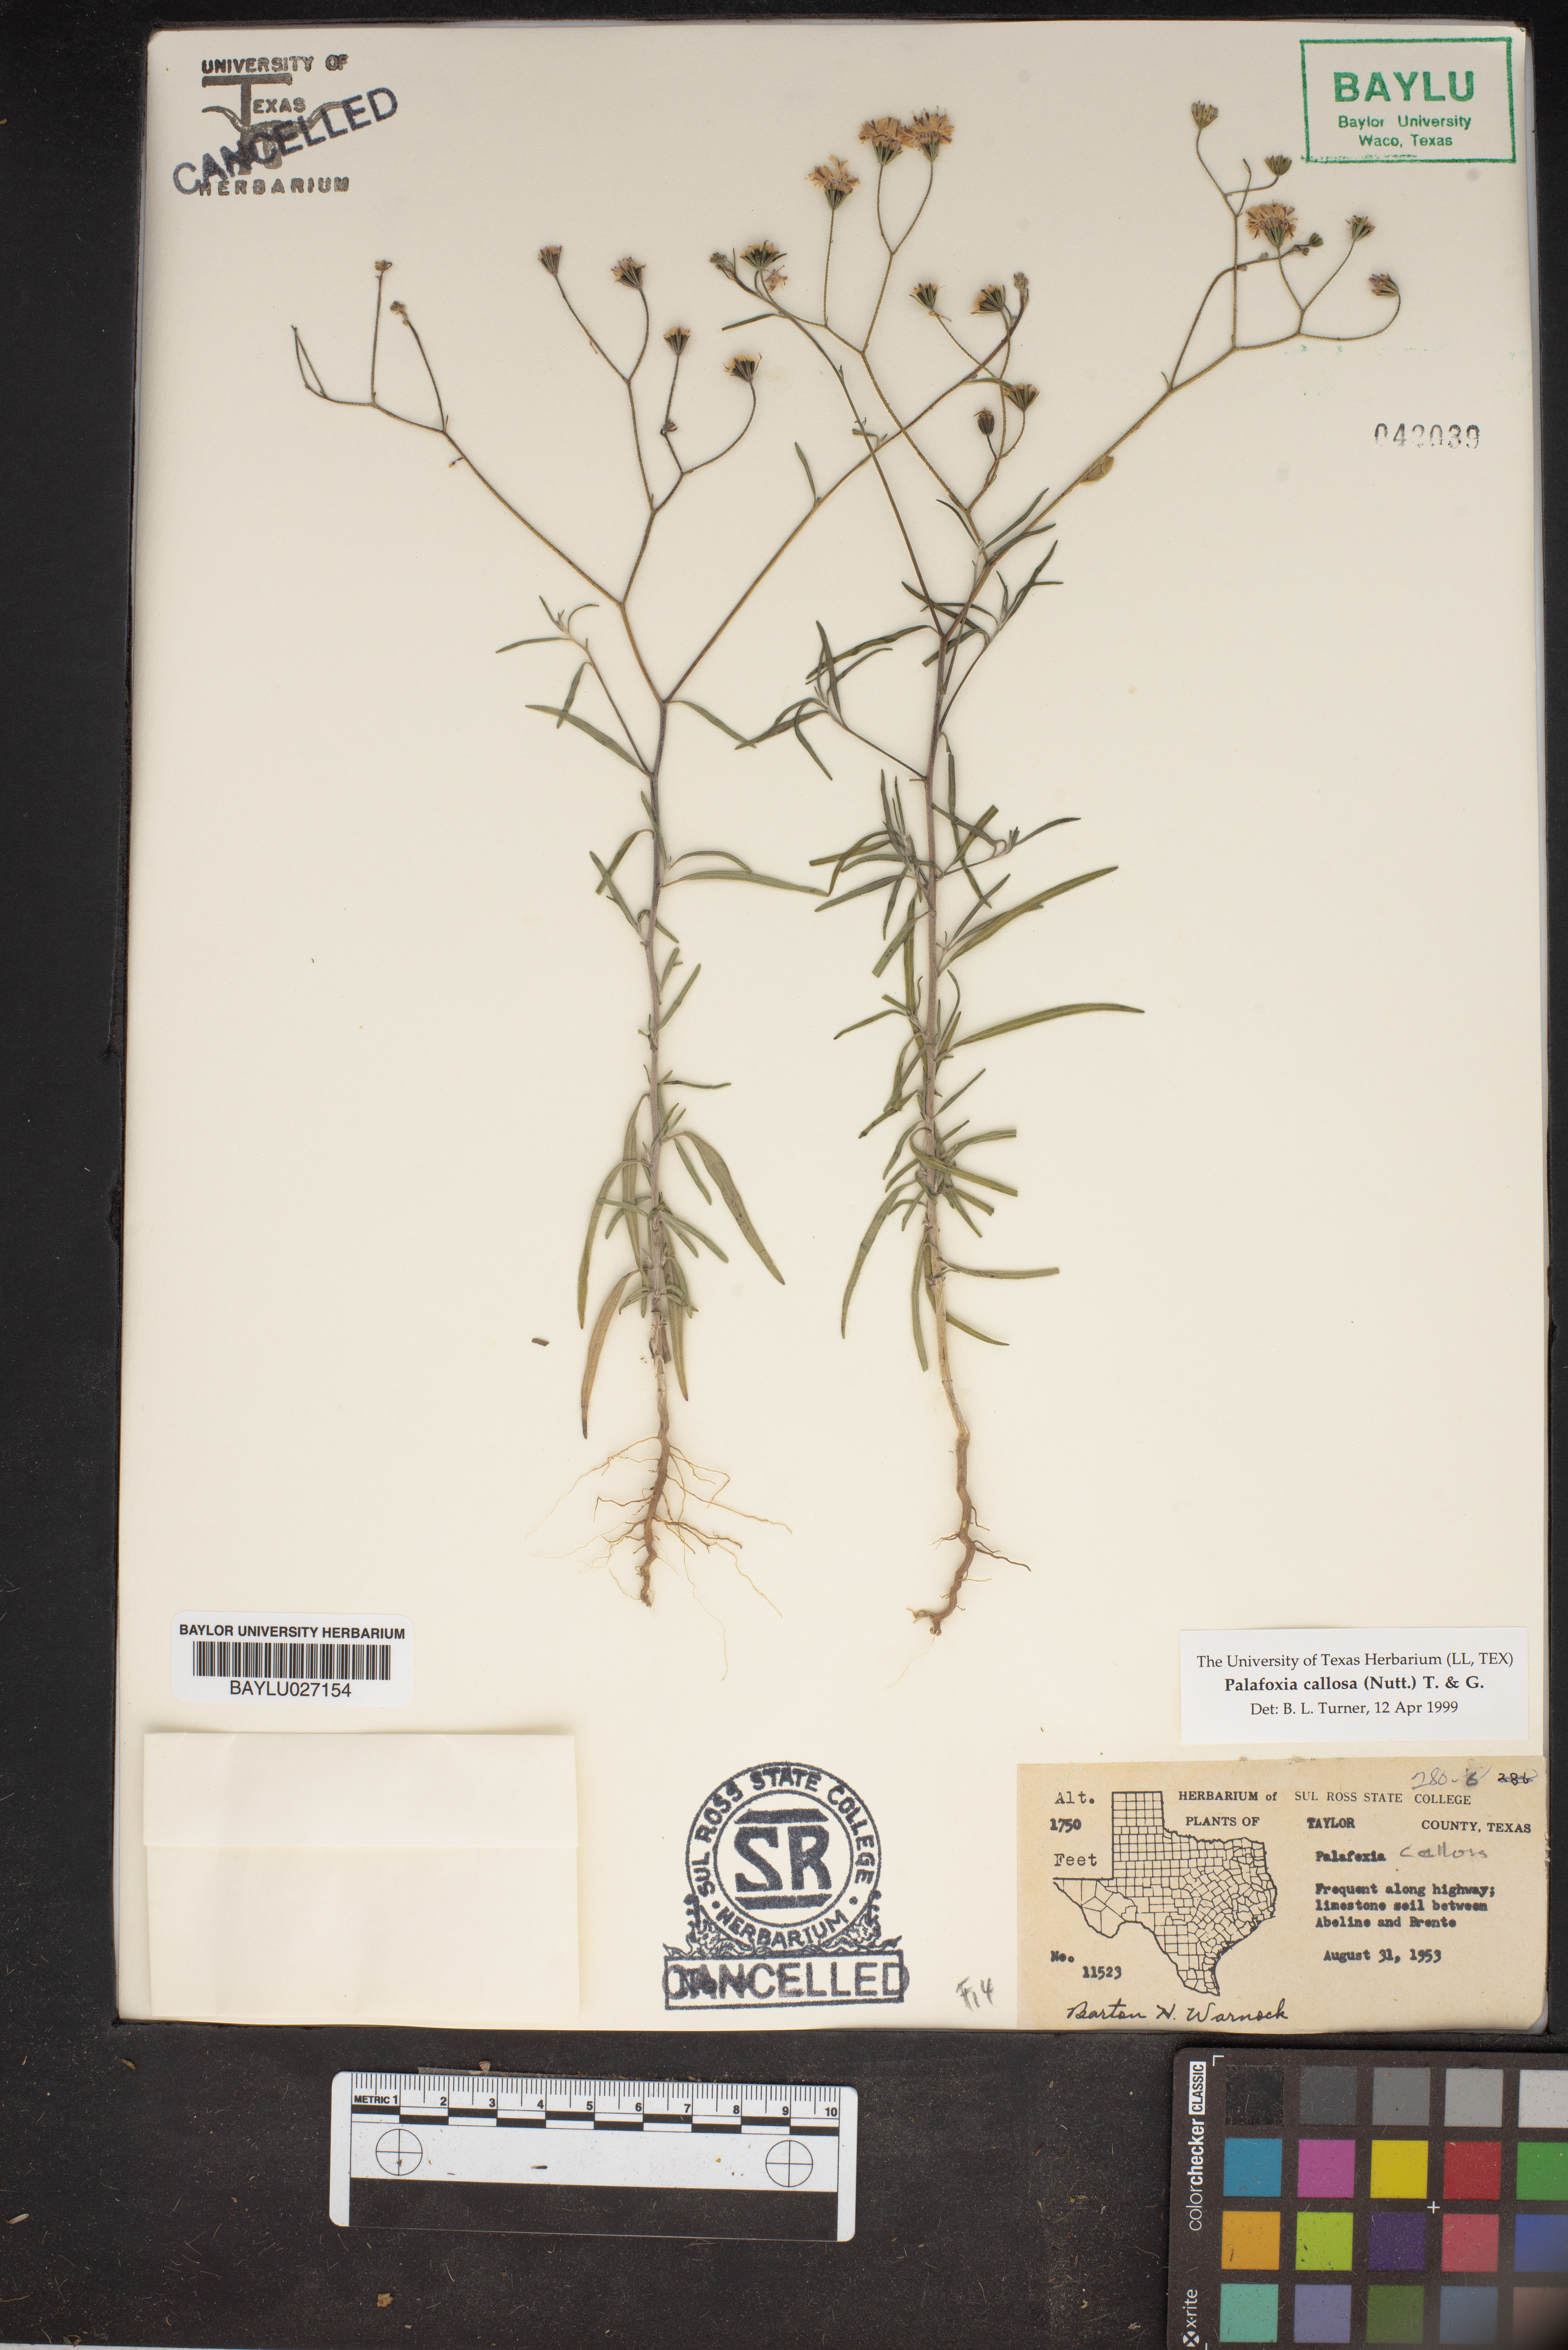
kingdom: Plantae
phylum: Tracheophyta
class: Magnoliopsida
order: Asterales
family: Asteraceae
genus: Palafoxia
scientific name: Palafoxia callosa
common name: Small palafox
